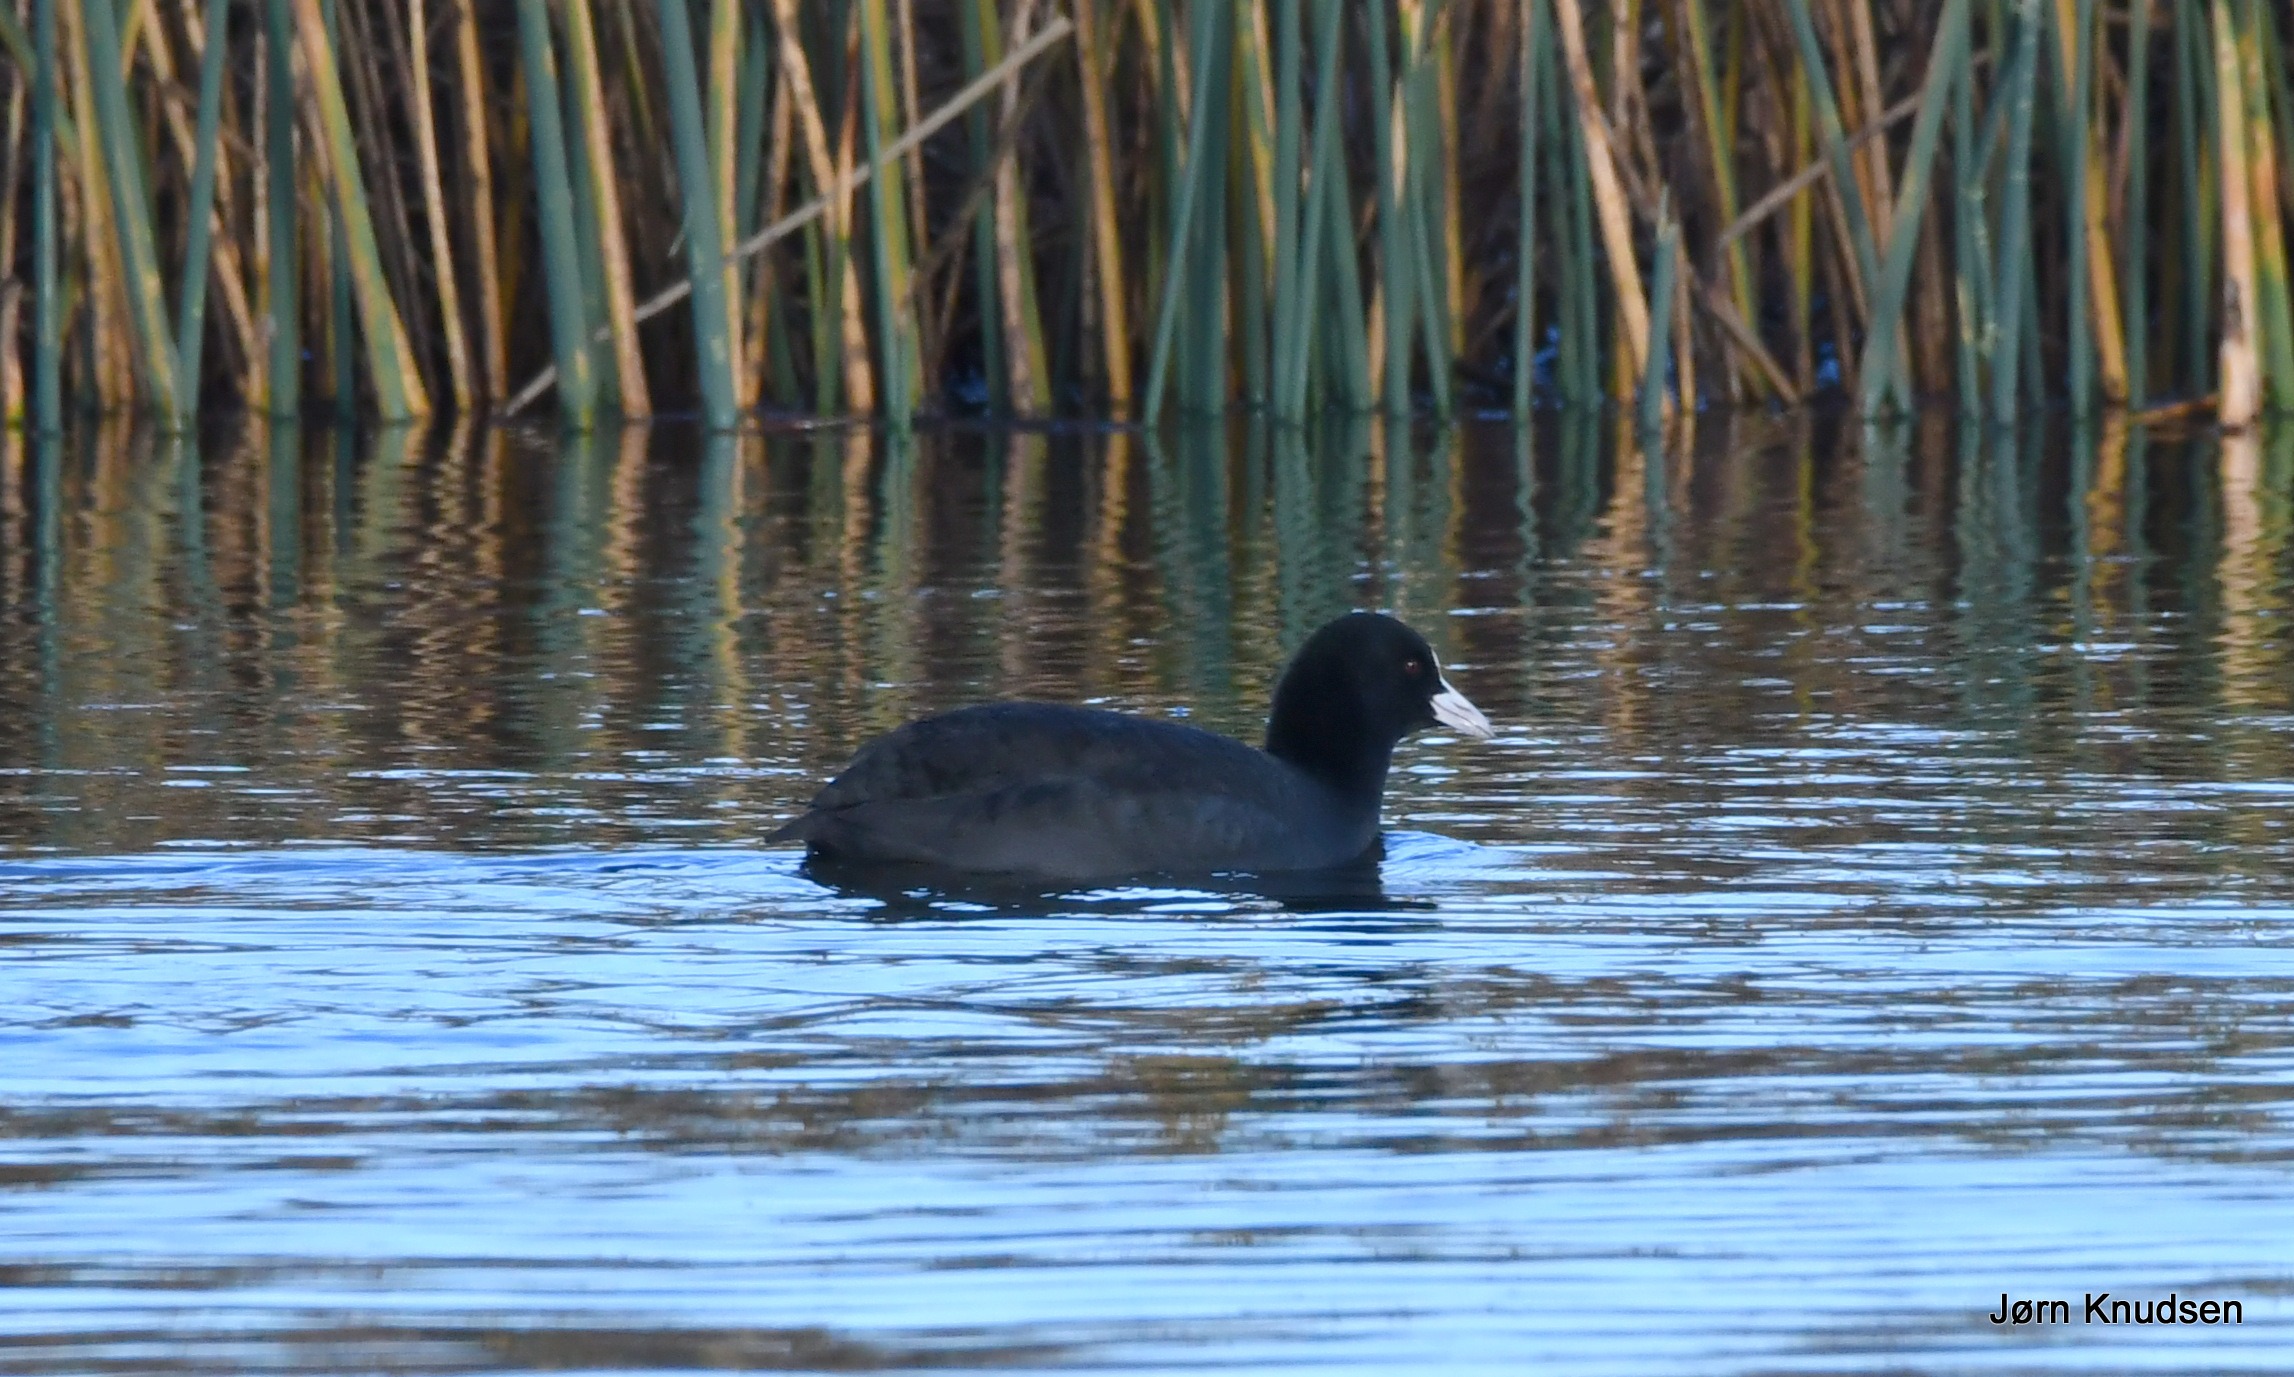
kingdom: Animalia
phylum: Chordata
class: Aves
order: Gruiformes
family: Rallidae
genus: Fulica
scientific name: Fulica atra
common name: Blishøne
